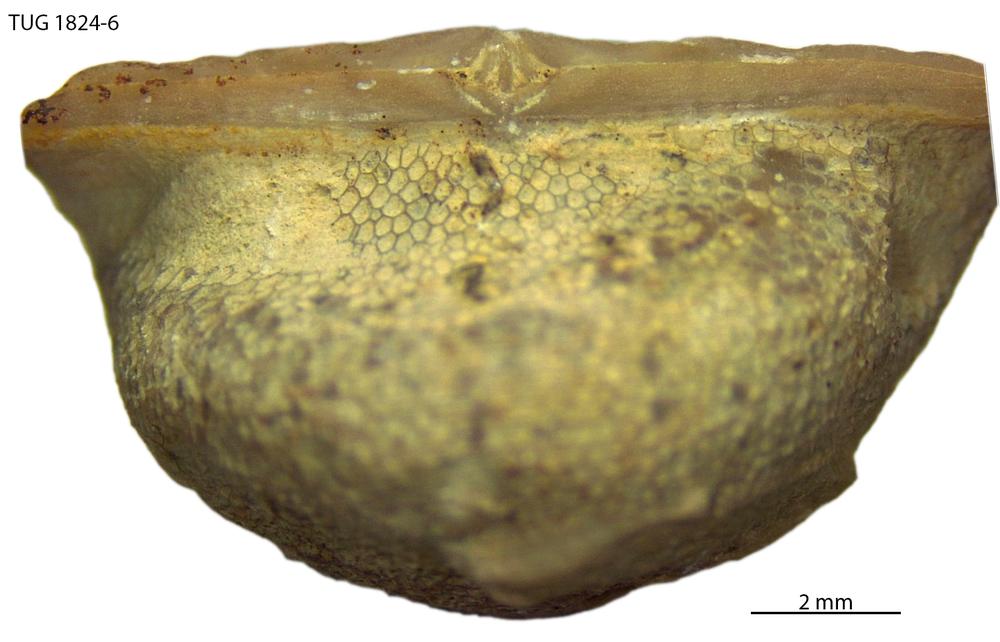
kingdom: Animalia
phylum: Bryozoa
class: Stenolaemata
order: Trepostomatida
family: Diplotrypidae
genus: Diplotrypa
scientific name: Diplotrypa
